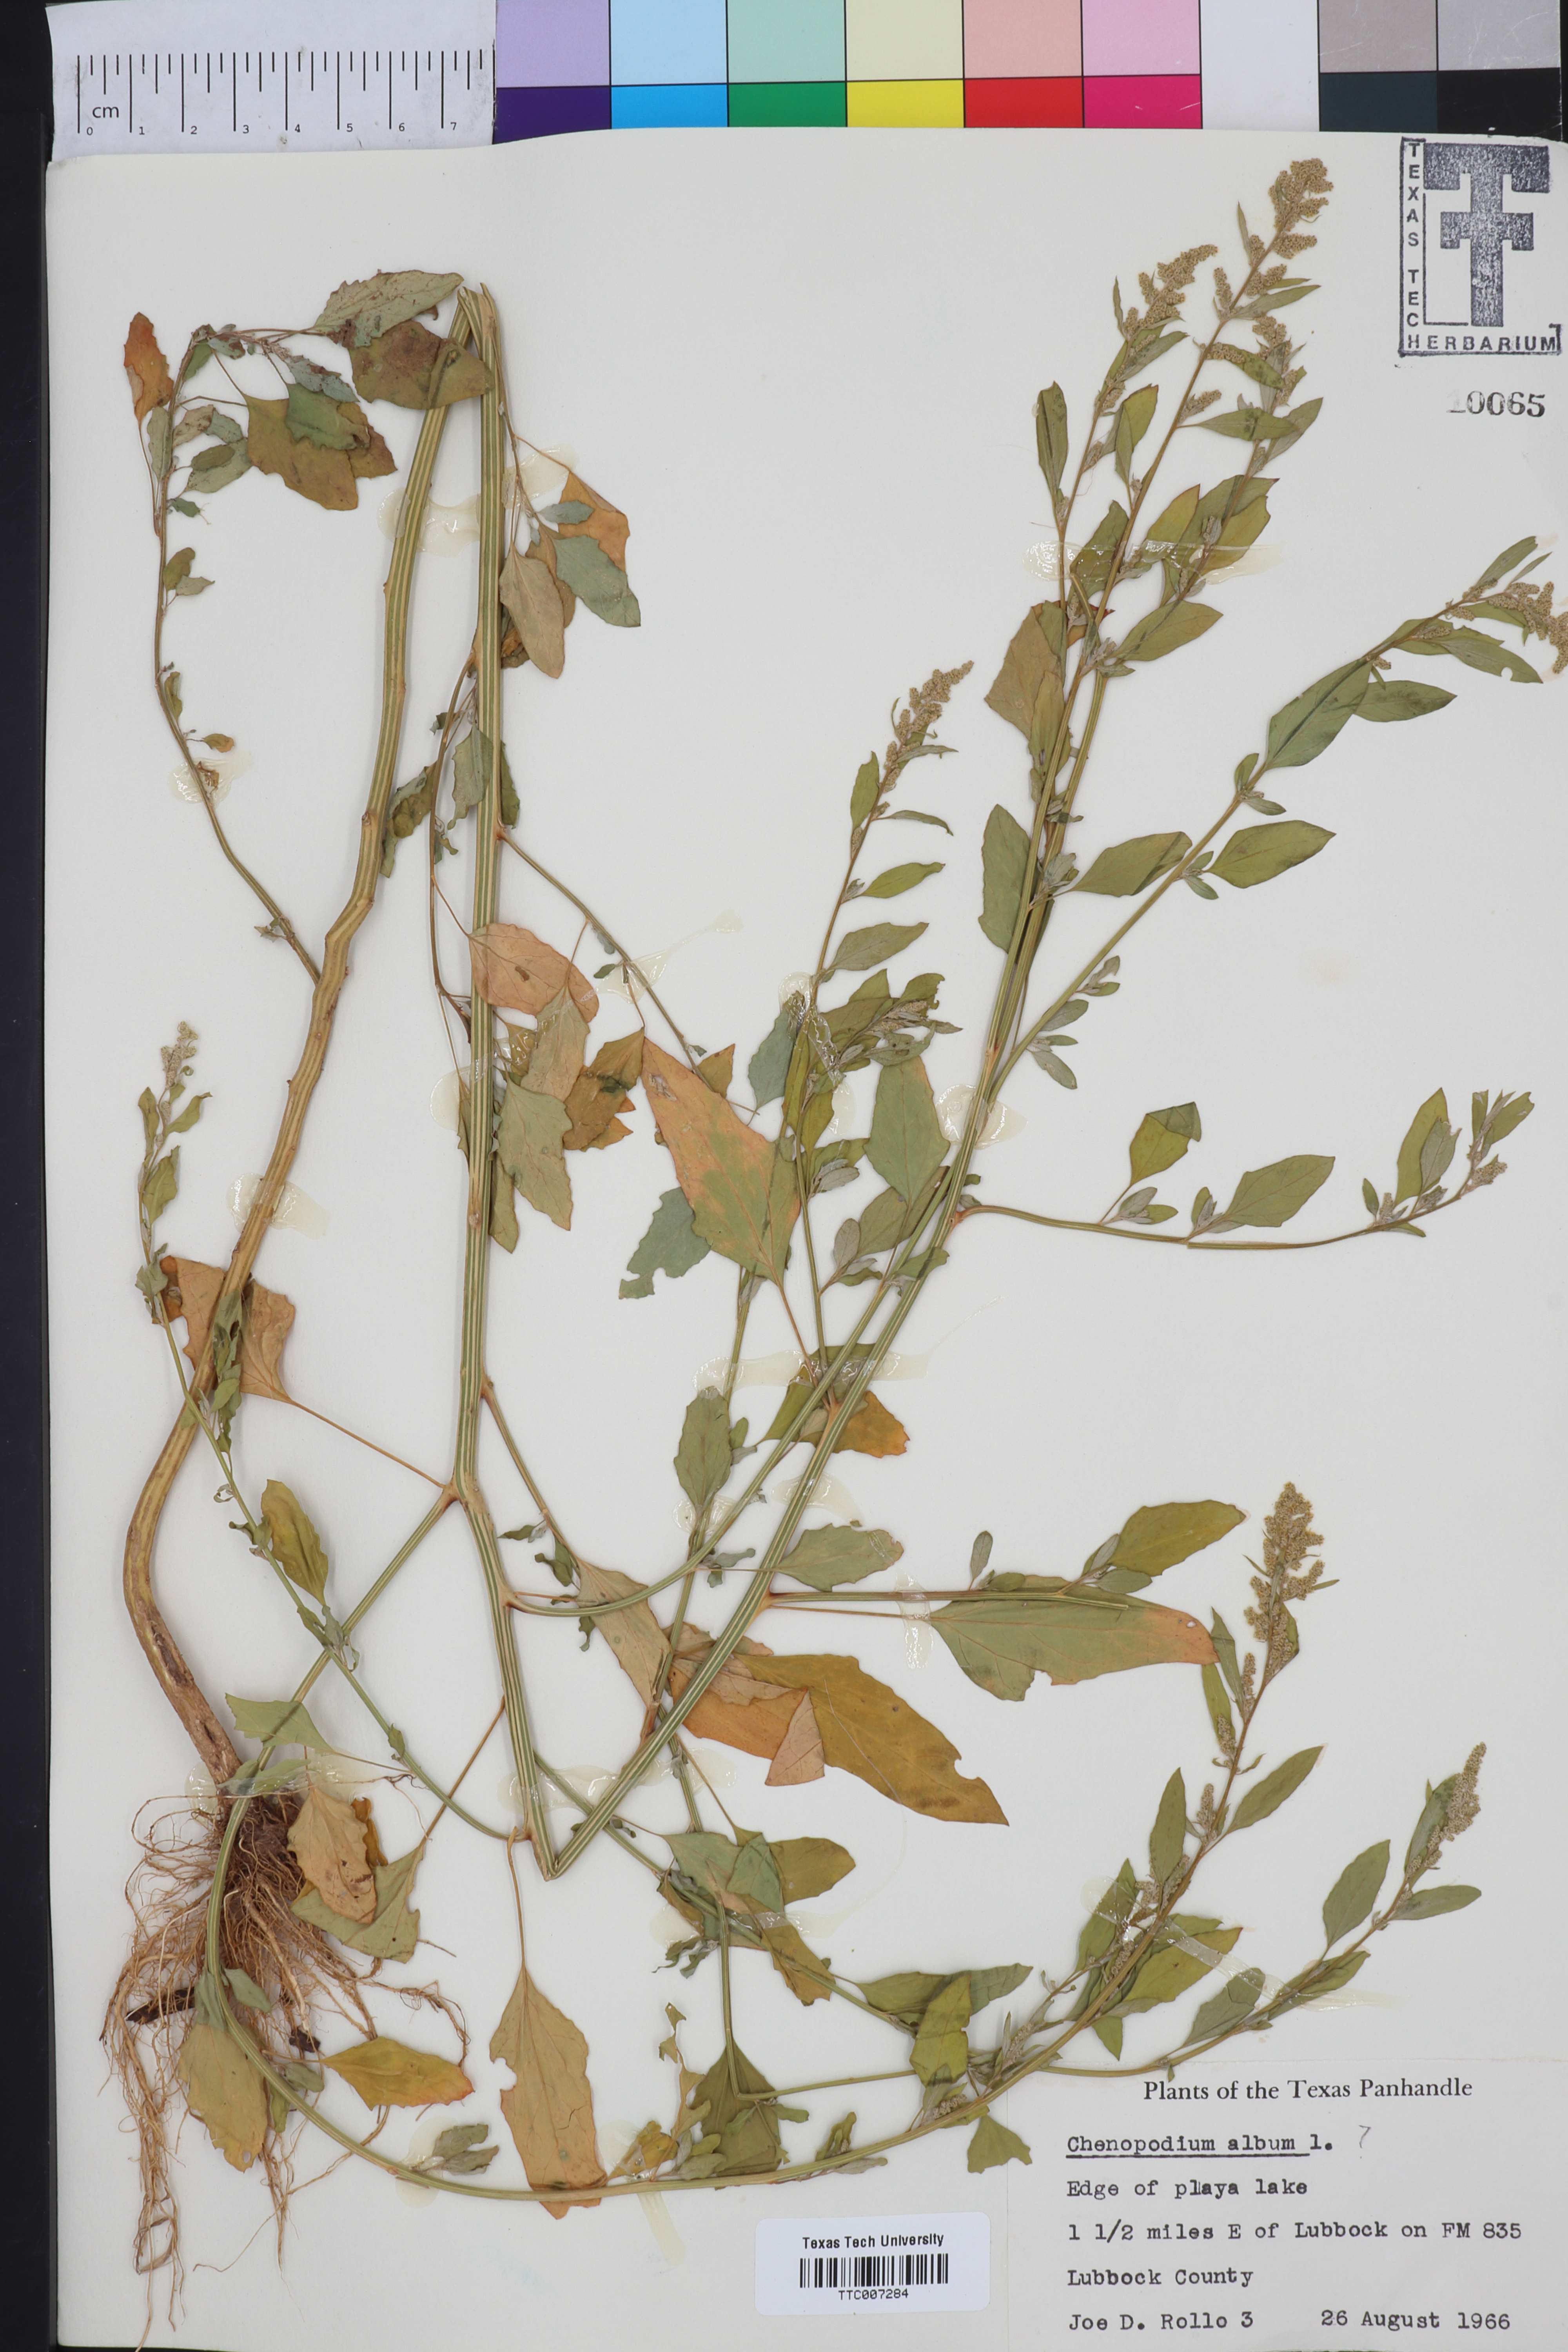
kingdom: Plantae
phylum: Tracheophyta
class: Magnoliopsida
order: Caryophyllales
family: Amaranthaceae
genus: Chenopodium
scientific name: Chenopodium album
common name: Fat-hen
